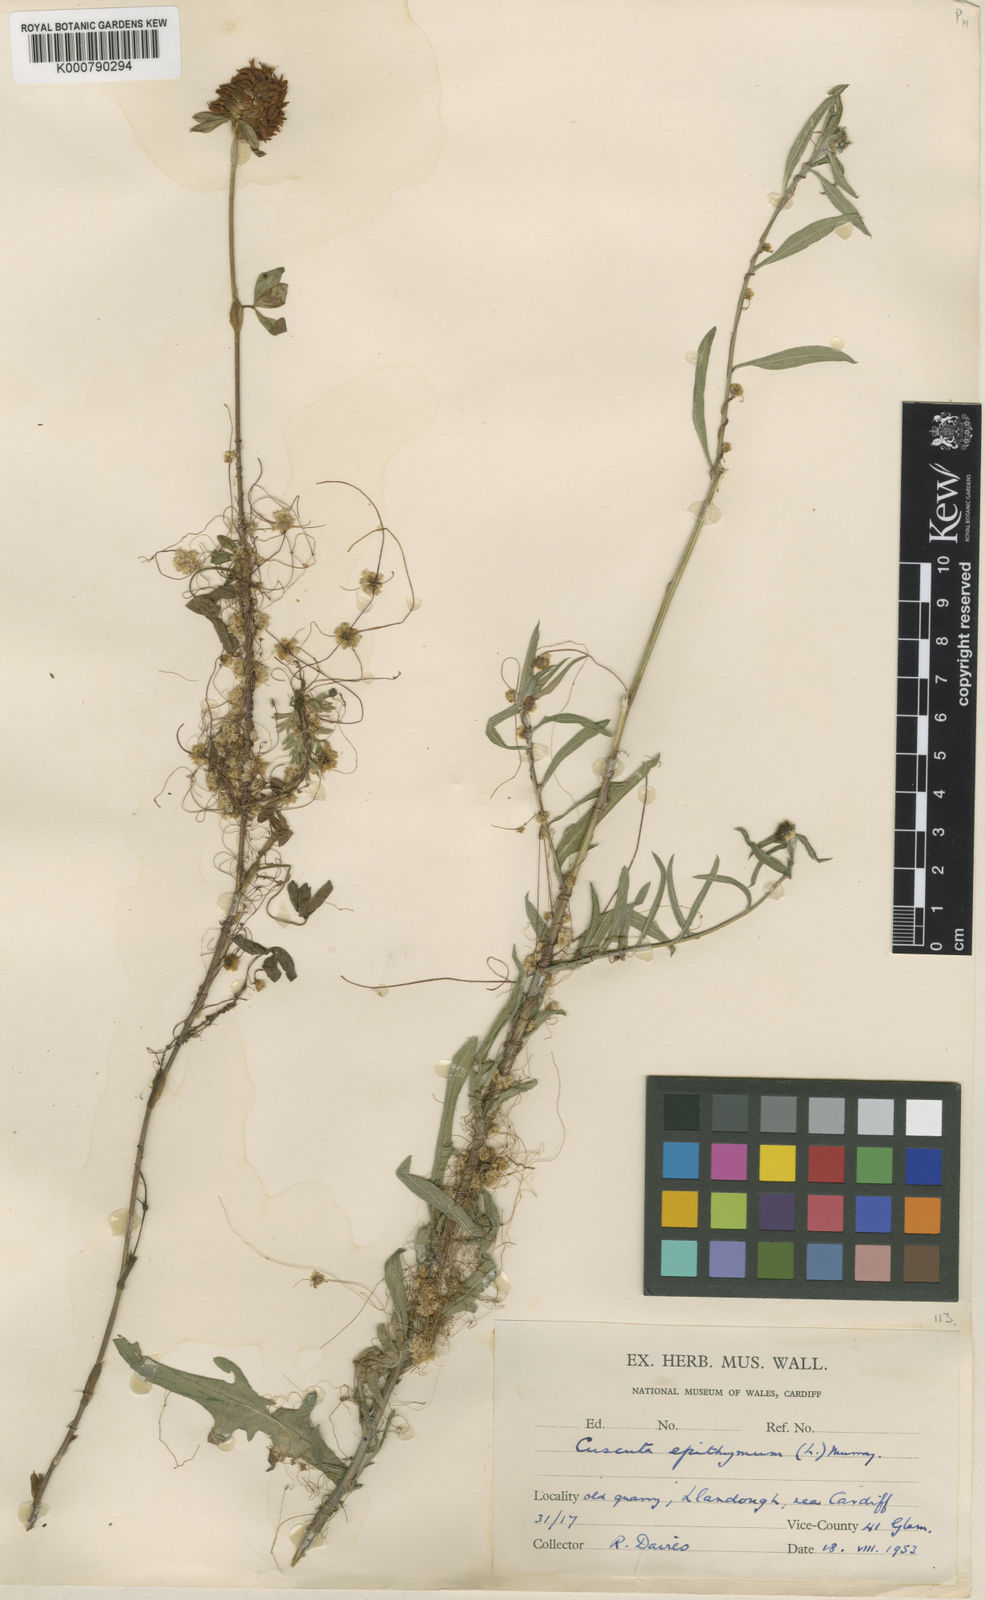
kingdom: Plantae
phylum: Tracheophyta
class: Magnoliopsida
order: Solanales
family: Convolvulaceae
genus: Cuscuta
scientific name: Cuscuta epithymum
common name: Clover dodder
